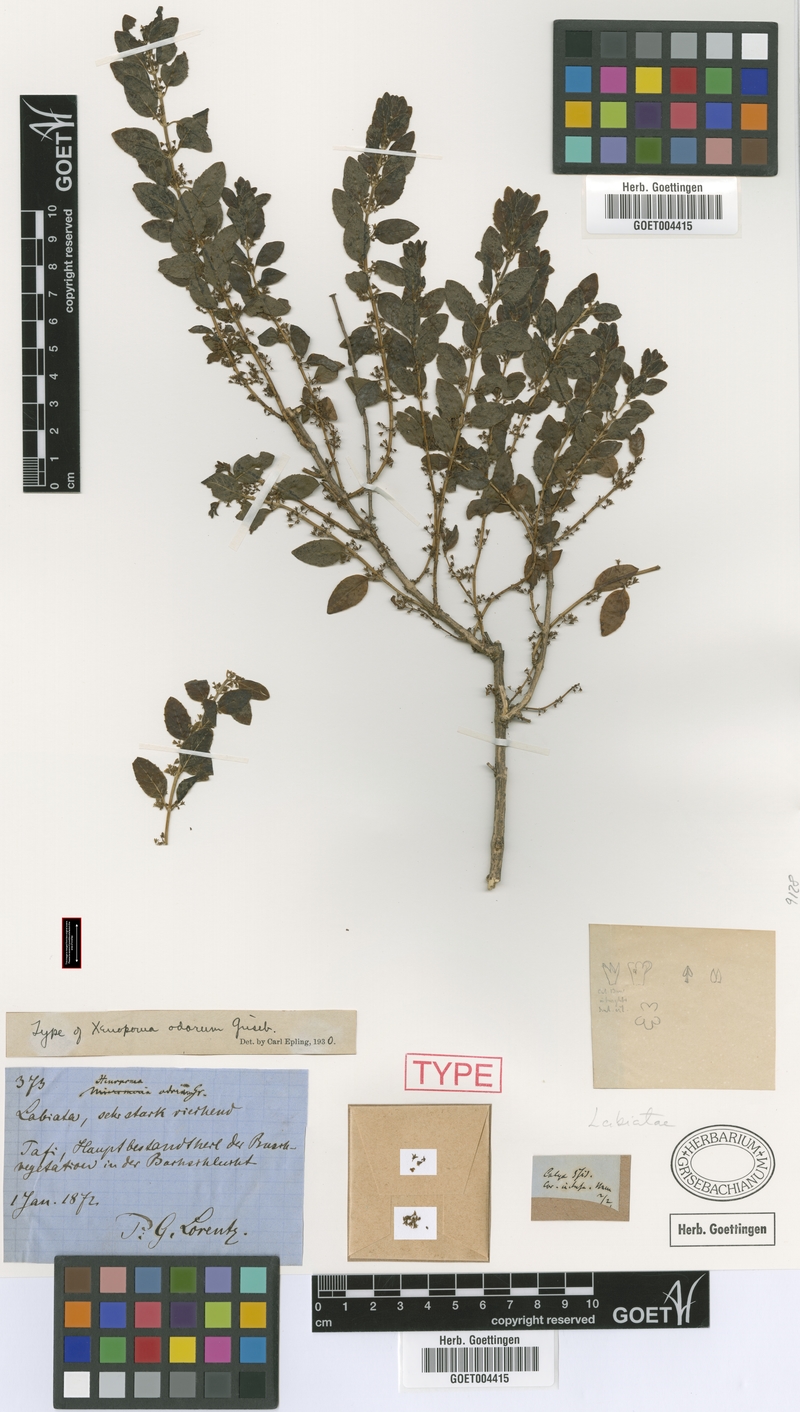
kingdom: Plantae
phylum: Tracheophyta
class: Magnoliopsida
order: Lamiales
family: Lamiaceae
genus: Clinopodium
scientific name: Clinopodium odorum
